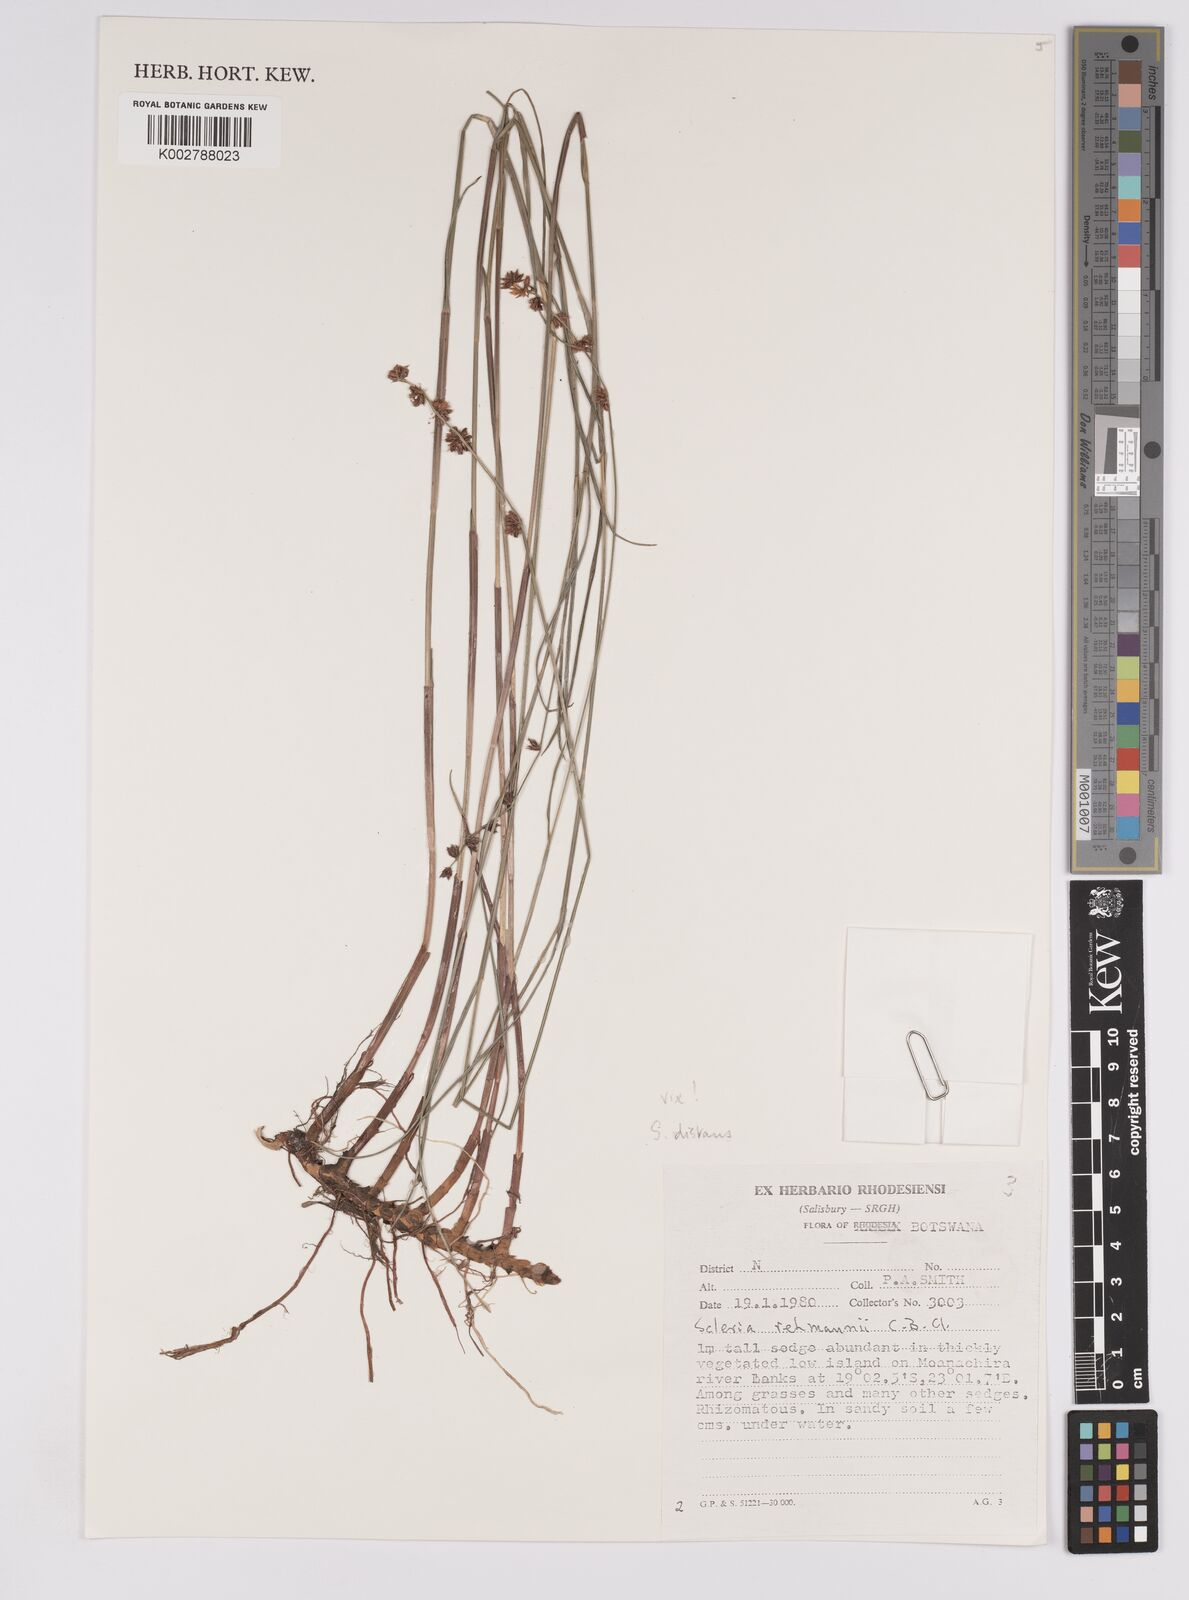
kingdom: Plantae
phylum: Tracheophyta
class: Liliopsida
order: Poales
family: Cyperaceae
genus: Scleria
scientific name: Scleria rehmannii
